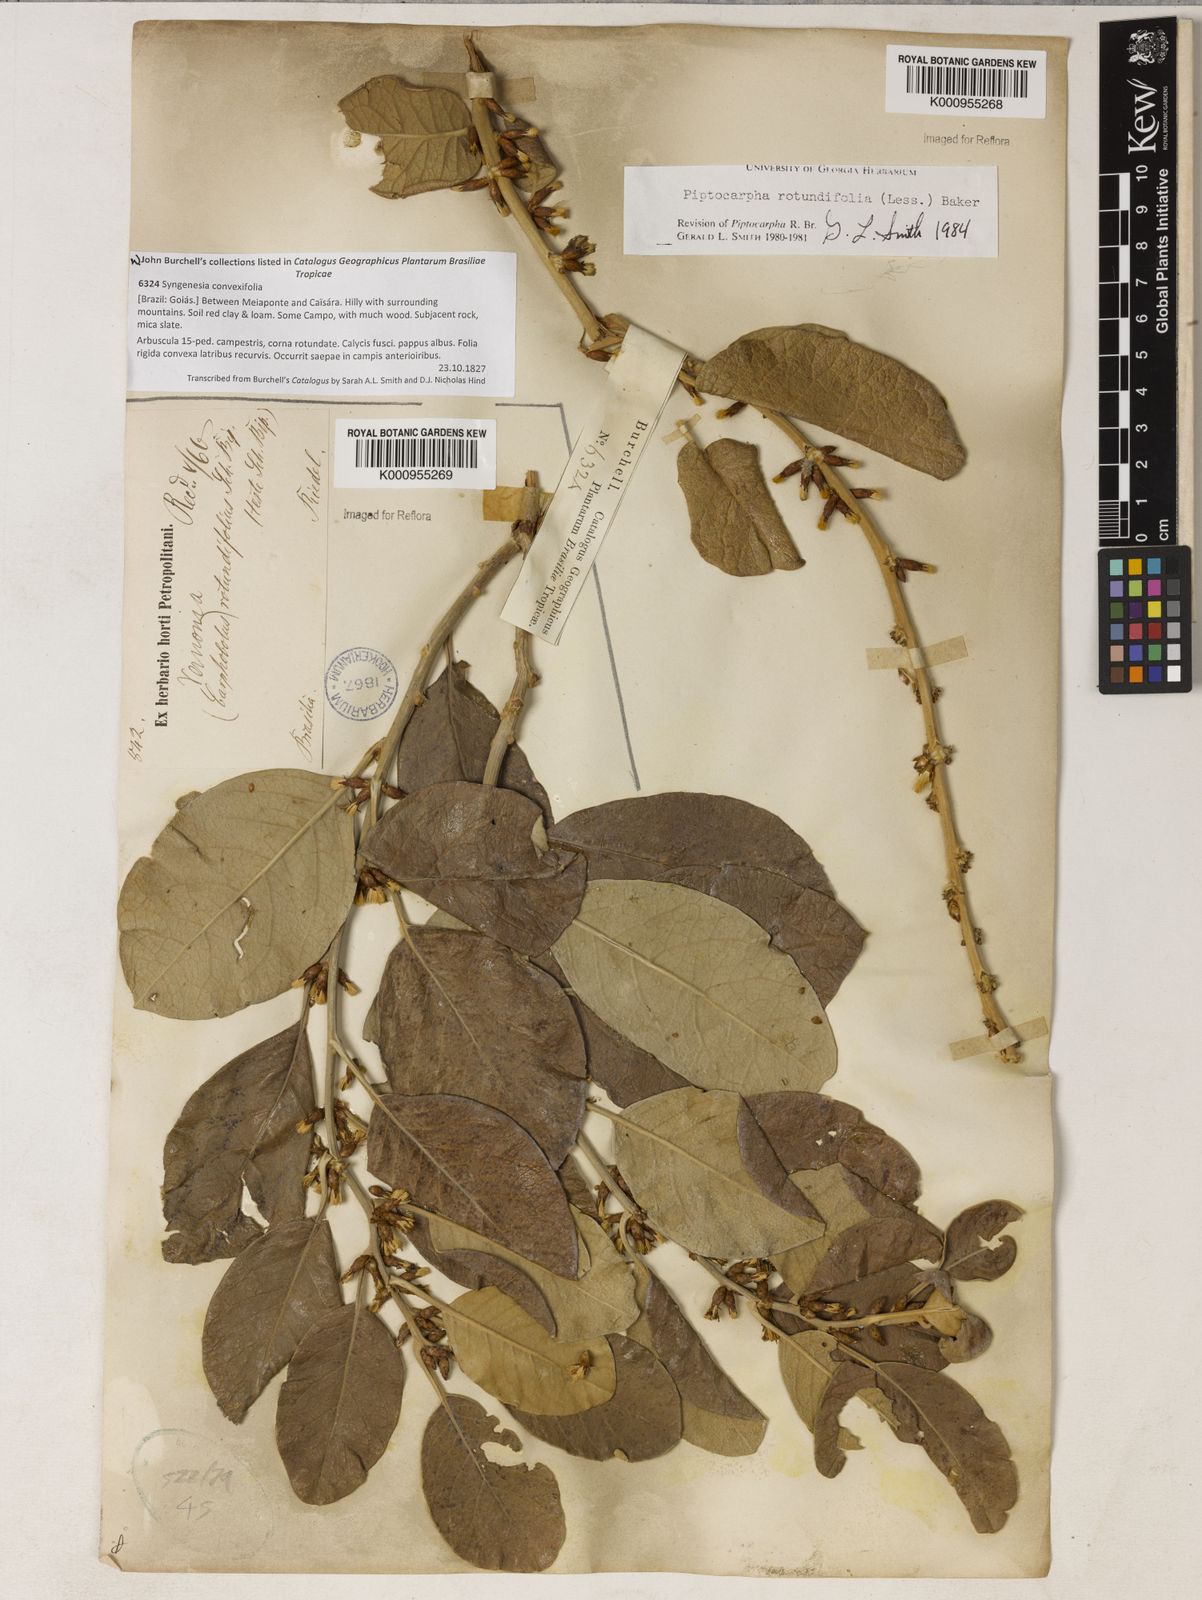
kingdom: Plantae
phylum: Tracheophyta
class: Magnoliopsida
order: Asterales
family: Asteraceae
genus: Piptocarpha
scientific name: Piptocarpha rotundifolia
